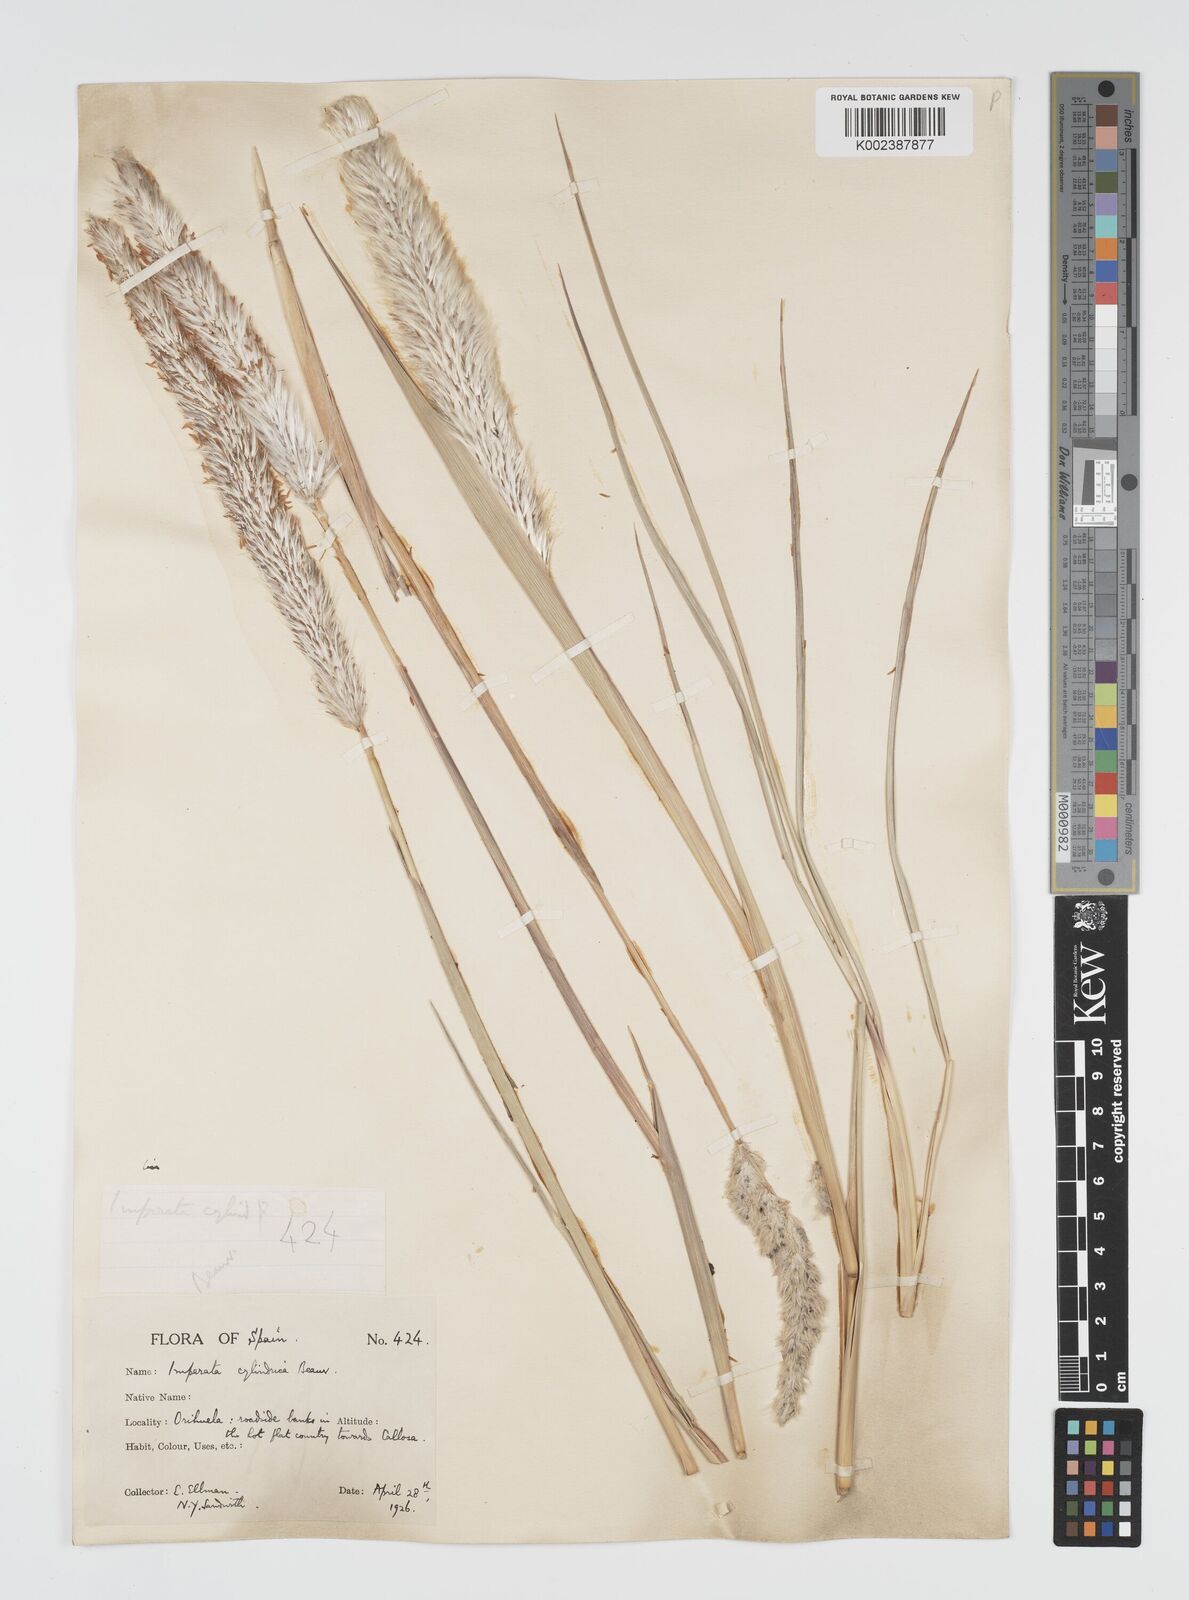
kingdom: Plantae
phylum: Tracheophyta
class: Liliopsida
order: Poales
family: Poaceae
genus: Imperata
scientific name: Imperata cylindrica
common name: Cogongrass
